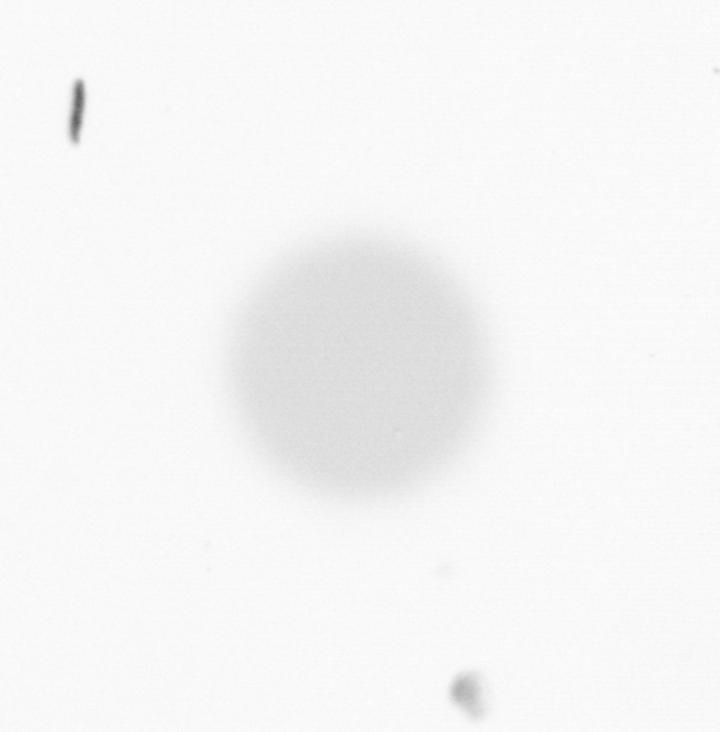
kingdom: Chromista
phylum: Ochrophyta
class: Bacillariophyceae
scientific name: Bacillariophyceae
